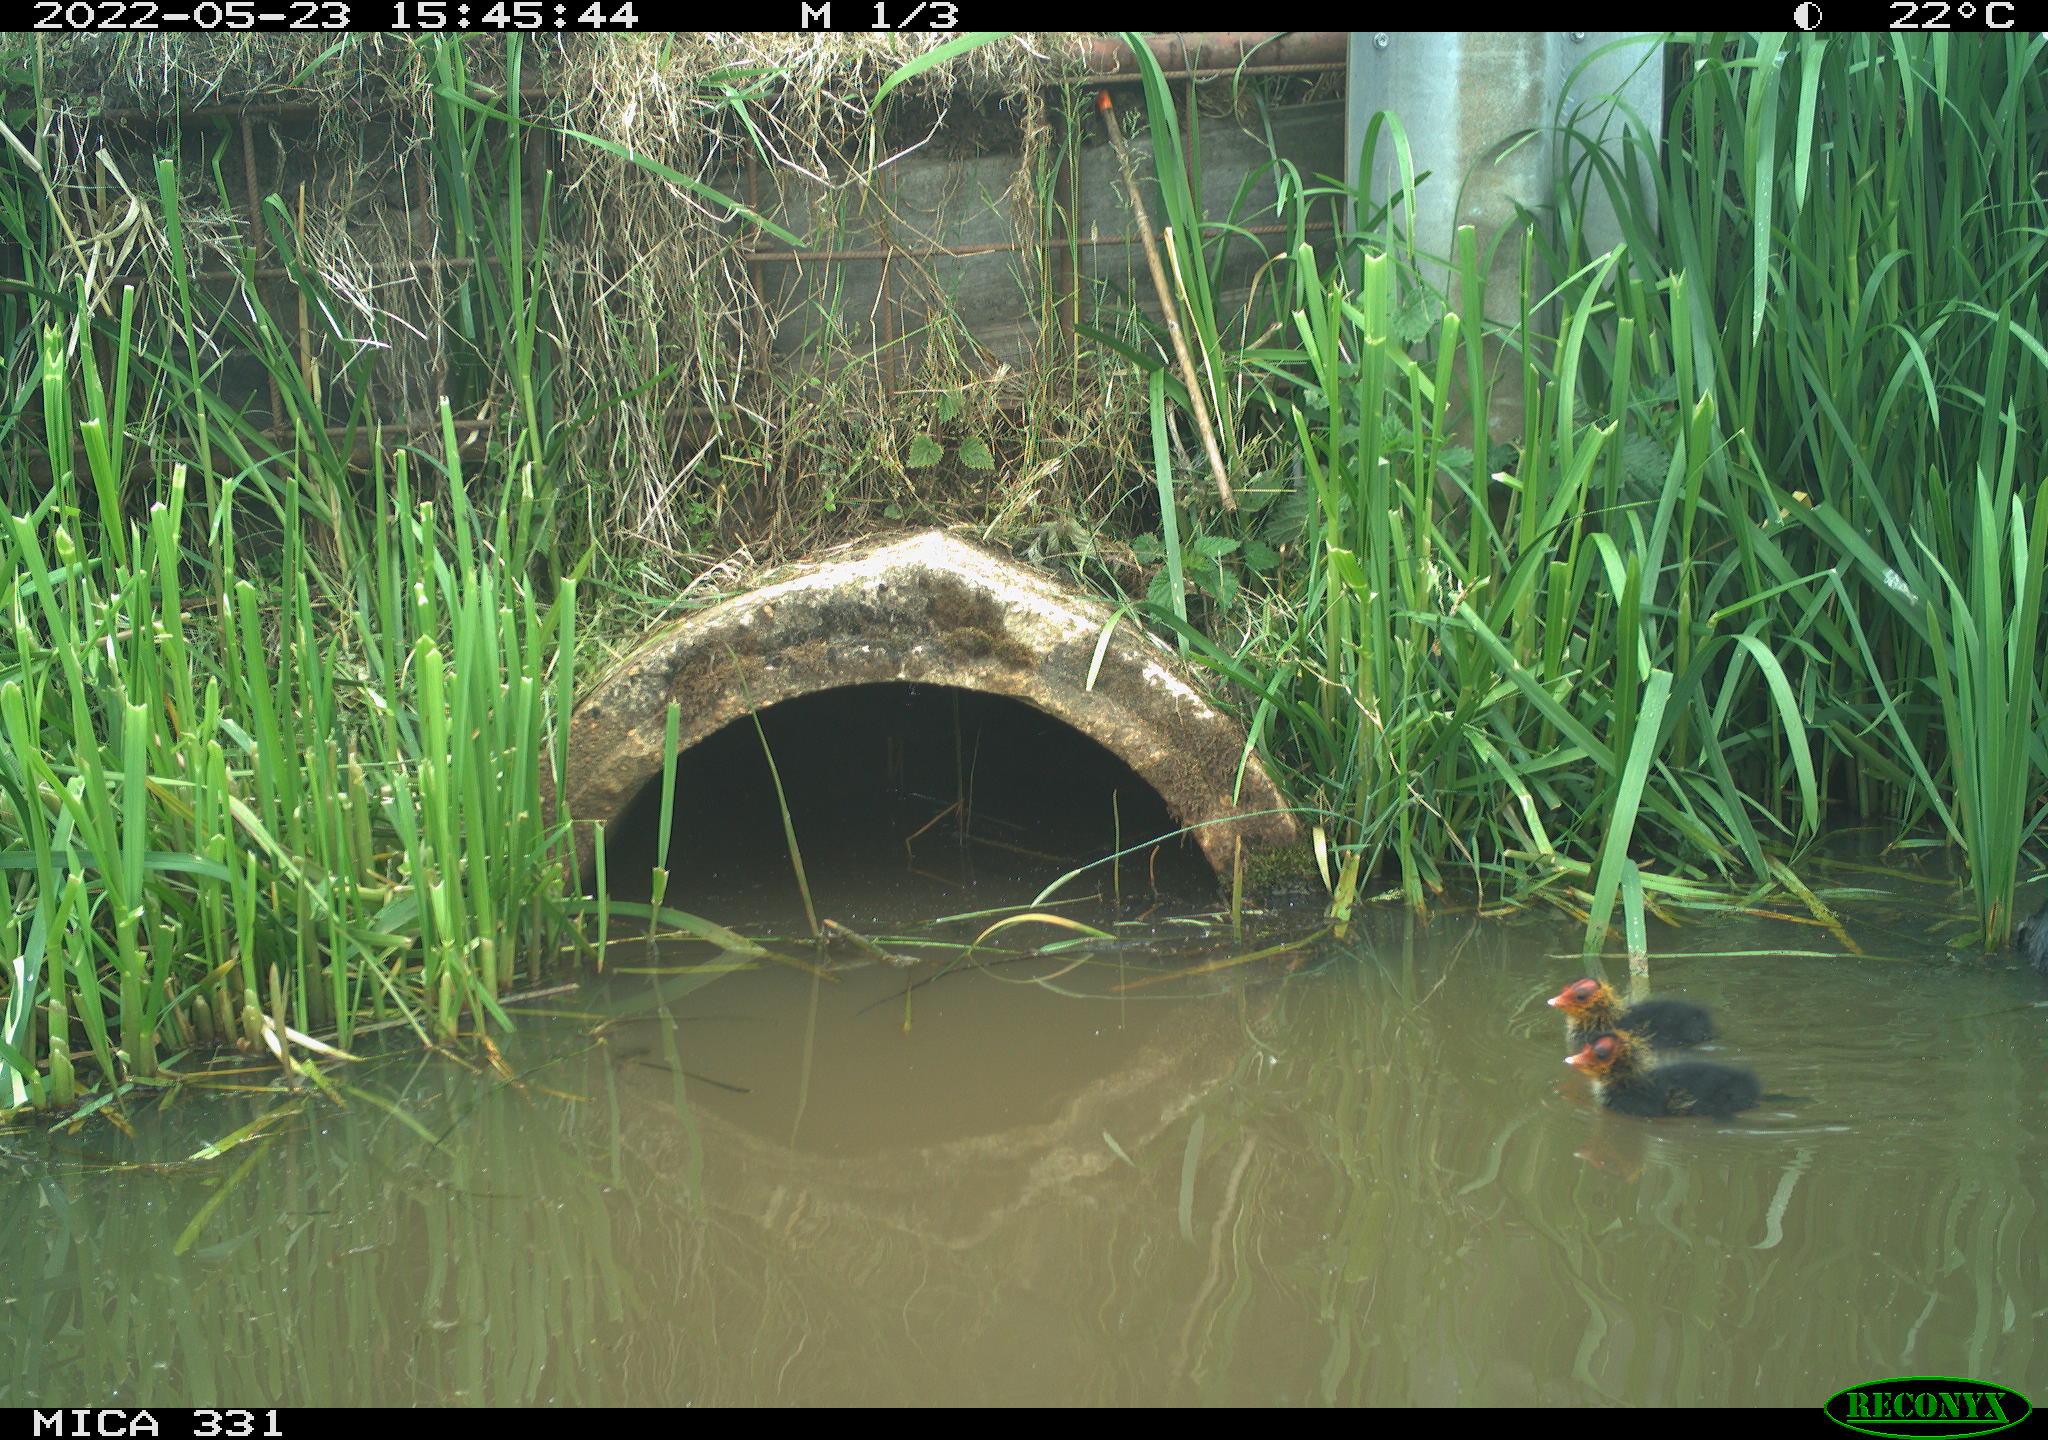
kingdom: Animalia
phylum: Chordata
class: Aves
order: Gruiformes
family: Rallidae
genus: Fulica
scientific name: Fulica atra
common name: Eurasian coot
